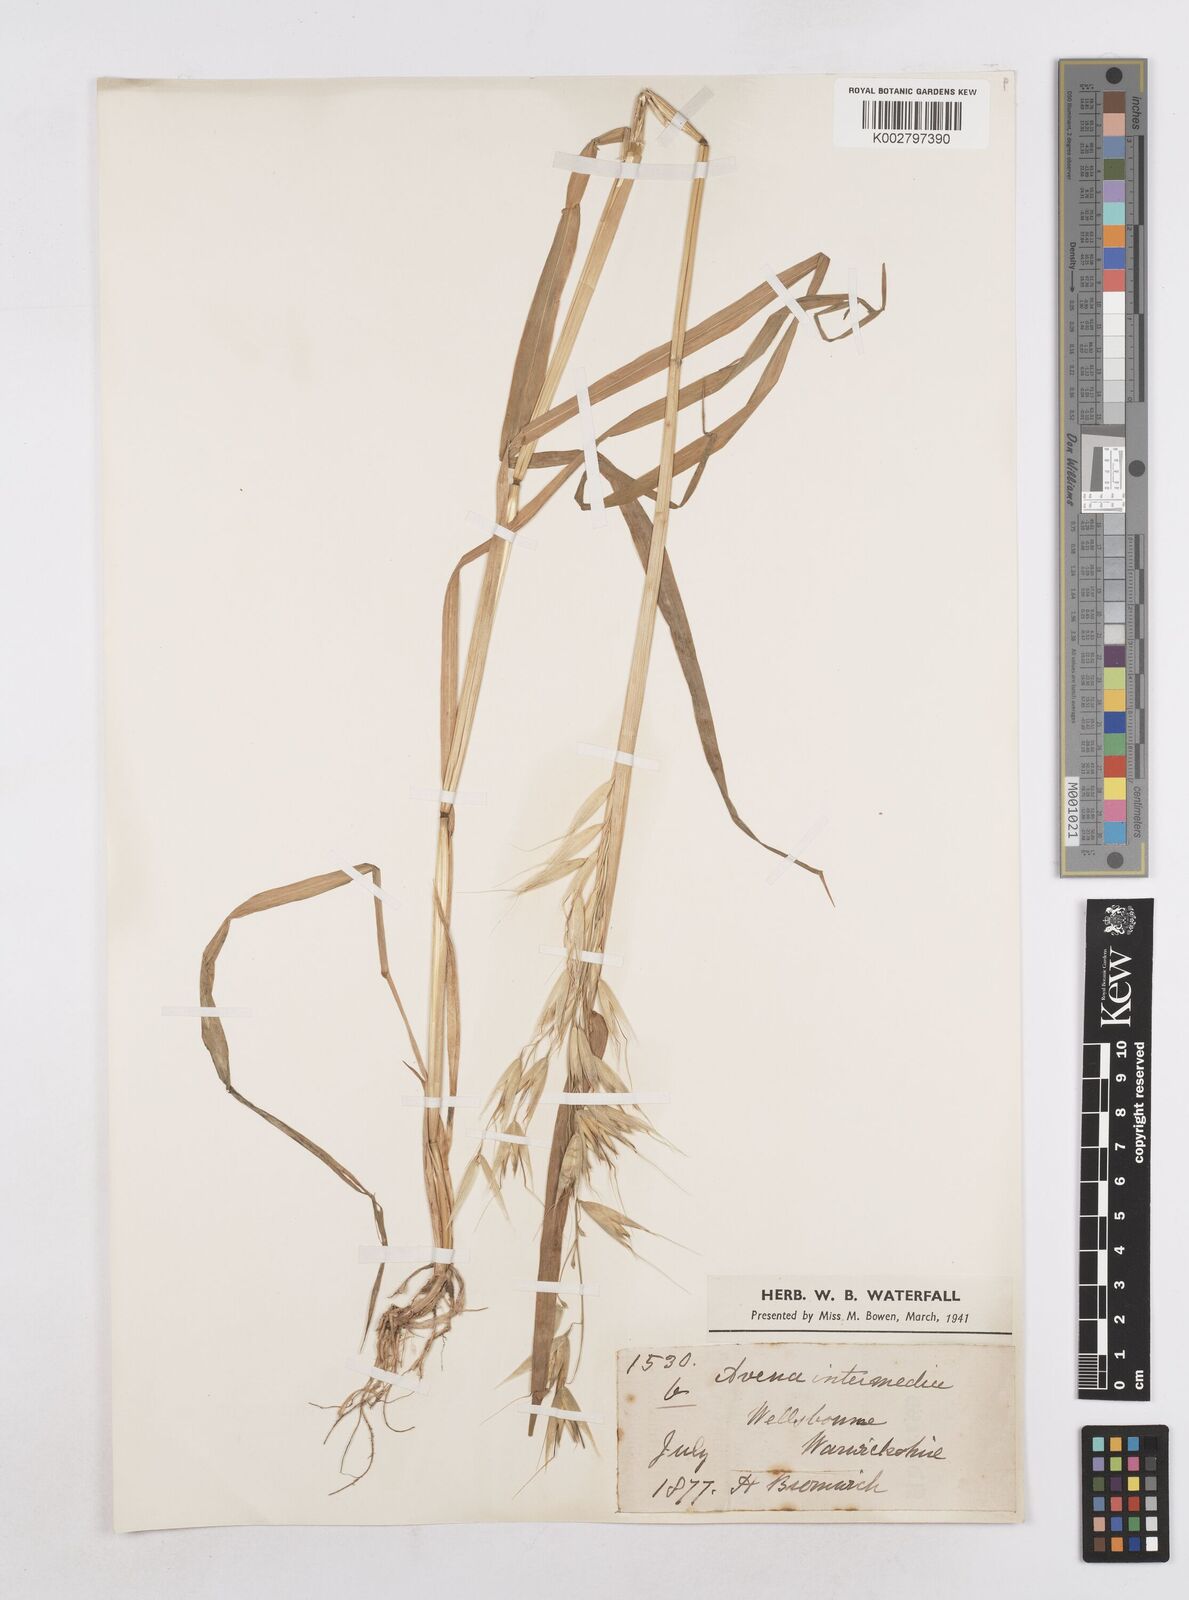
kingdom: Plantae
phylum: Tracheophyta
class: Liliopsida
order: Poales
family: Poaceae
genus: Avena
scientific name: Avena fatua
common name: Wild oat
